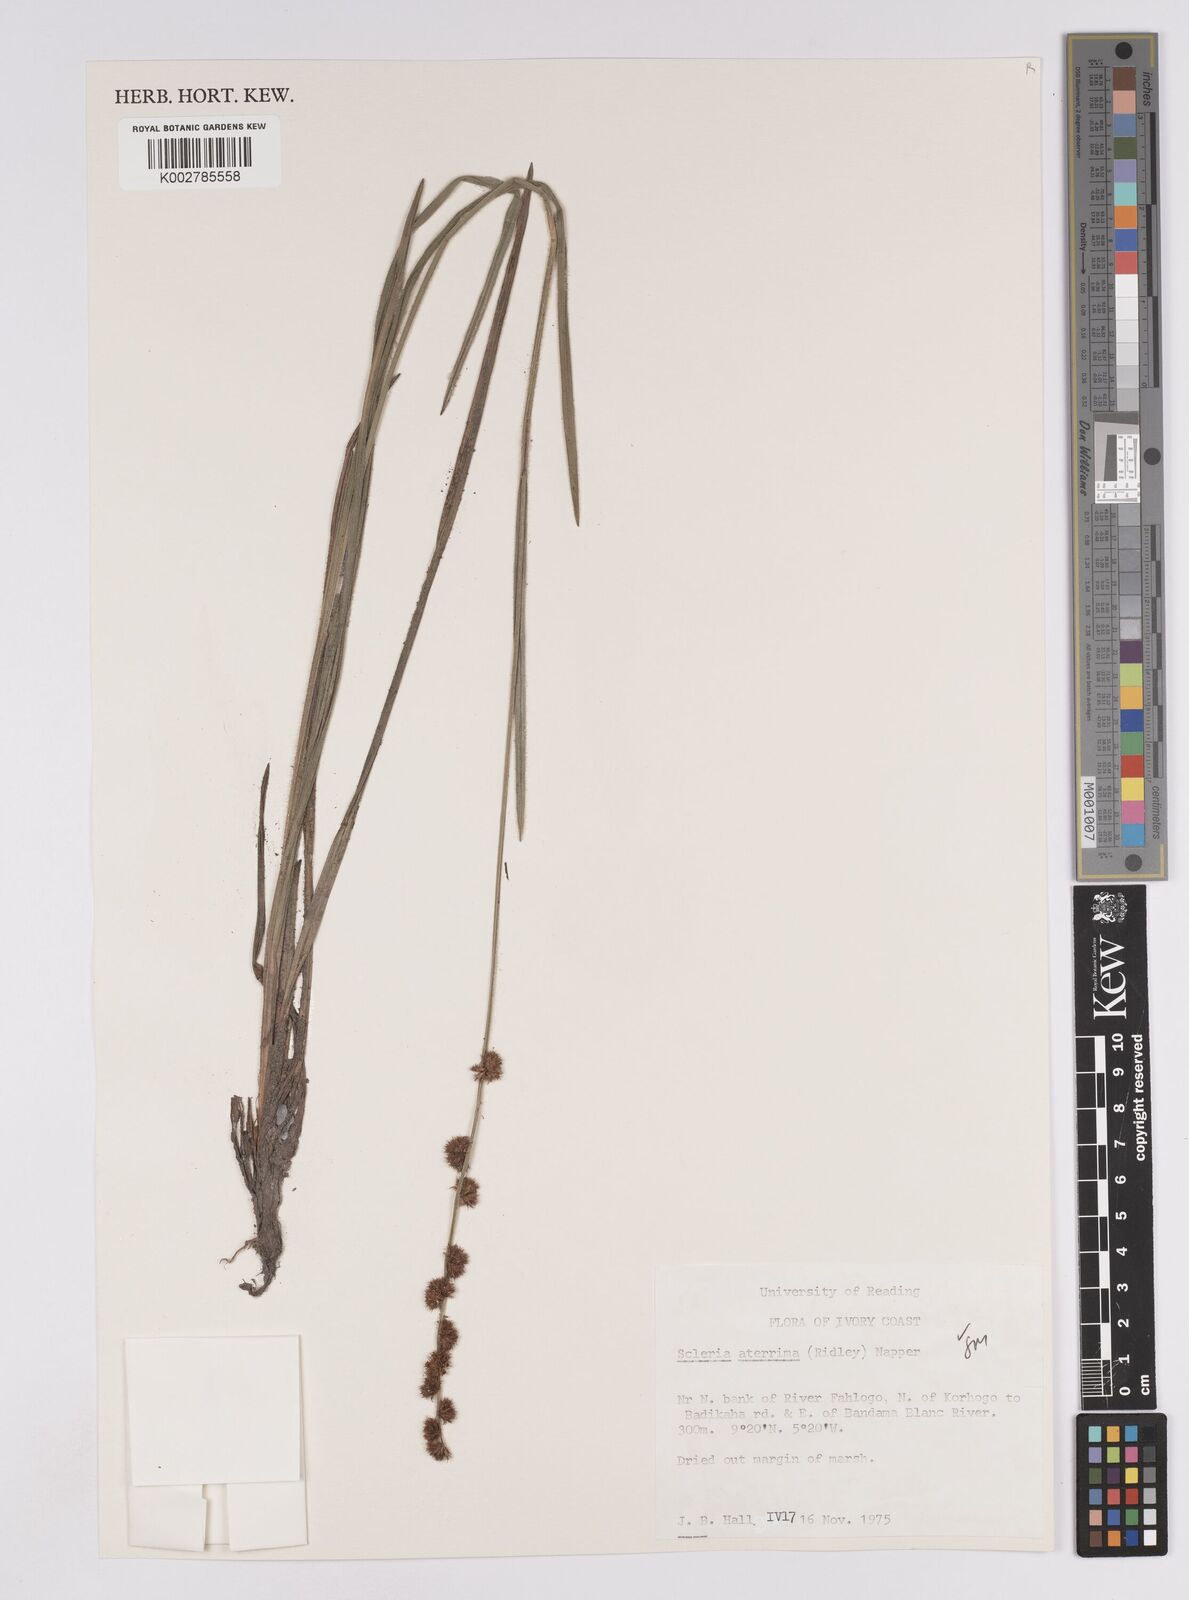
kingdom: Plantae
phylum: Tracheophyta
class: Liliopsida
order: Poales
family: Cyperaceae
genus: Scleria
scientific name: Scleria catophylla
